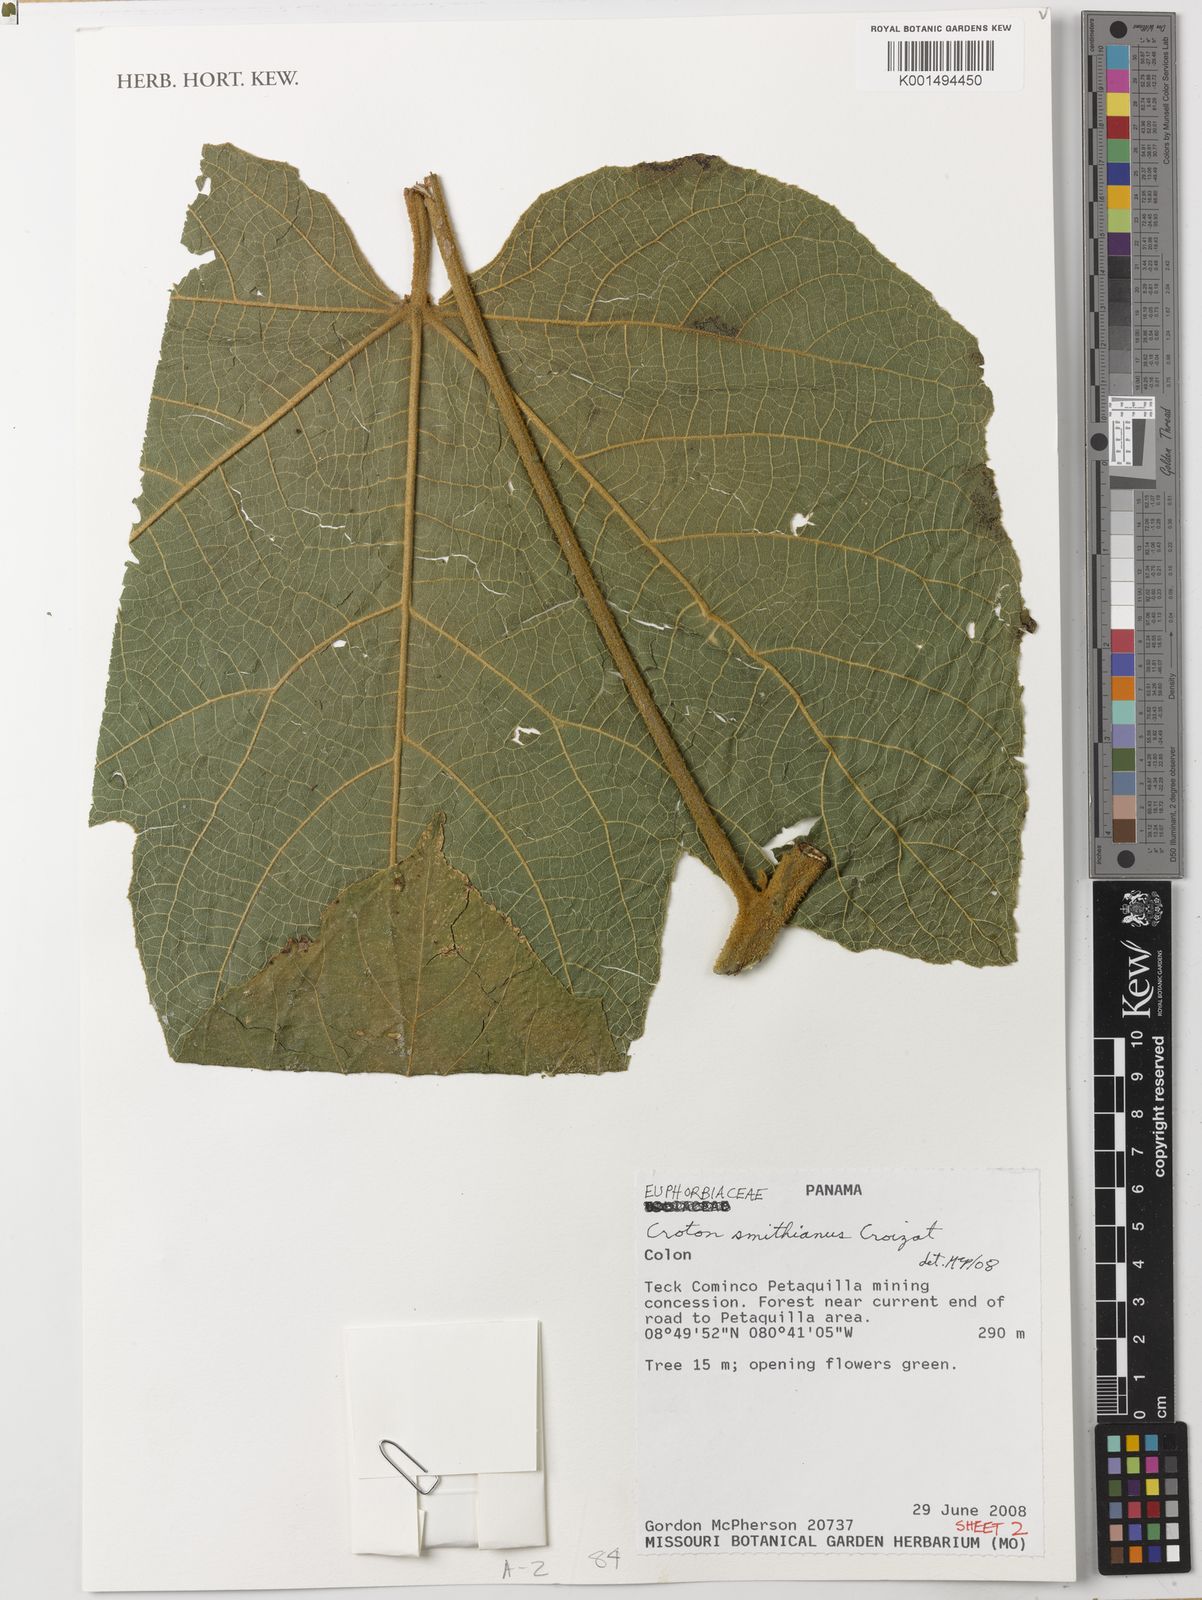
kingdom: Plantae
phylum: Tracheophyta
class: Magnoliopsida
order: Malpighiales
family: Euphorbiaceae
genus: Croton
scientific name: Croton smithianus
